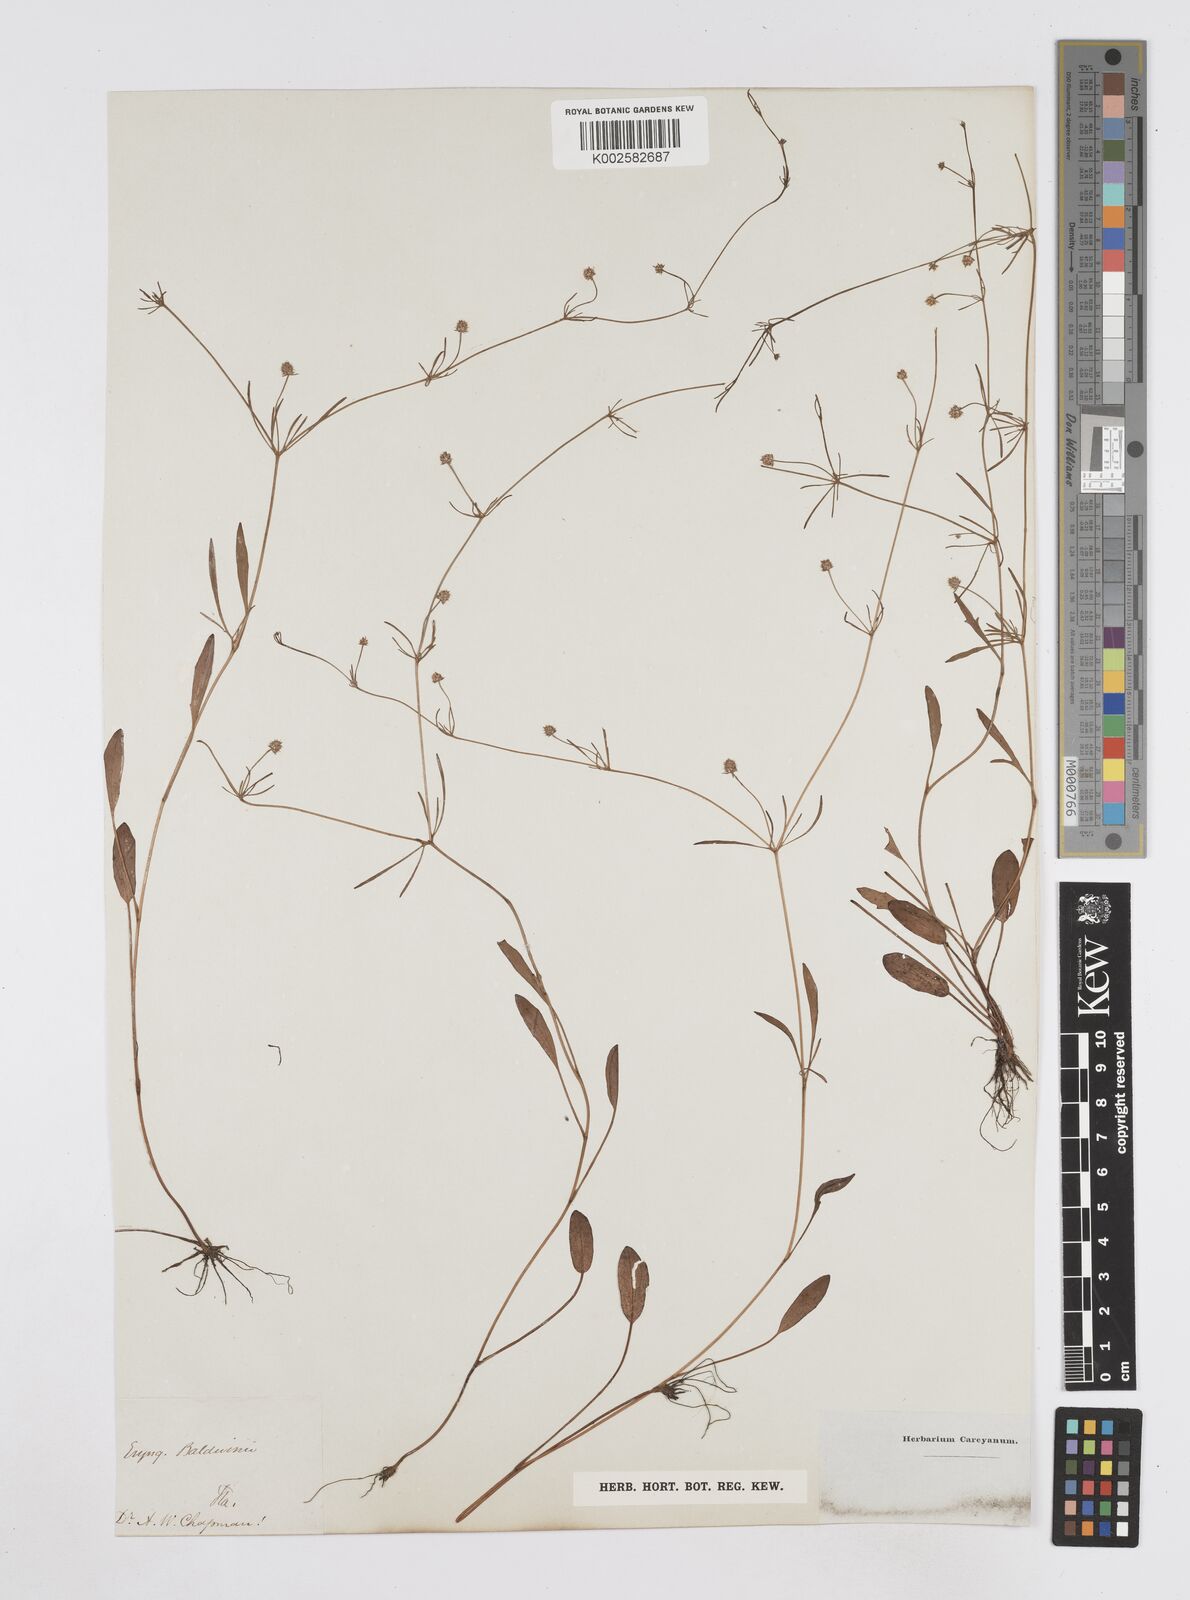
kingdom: Plantae
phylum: Tracheophyta
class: Magnoliopsida
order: Apiales
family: Apiaceae
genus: Eryngium
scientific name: Eryngium baldwinii
